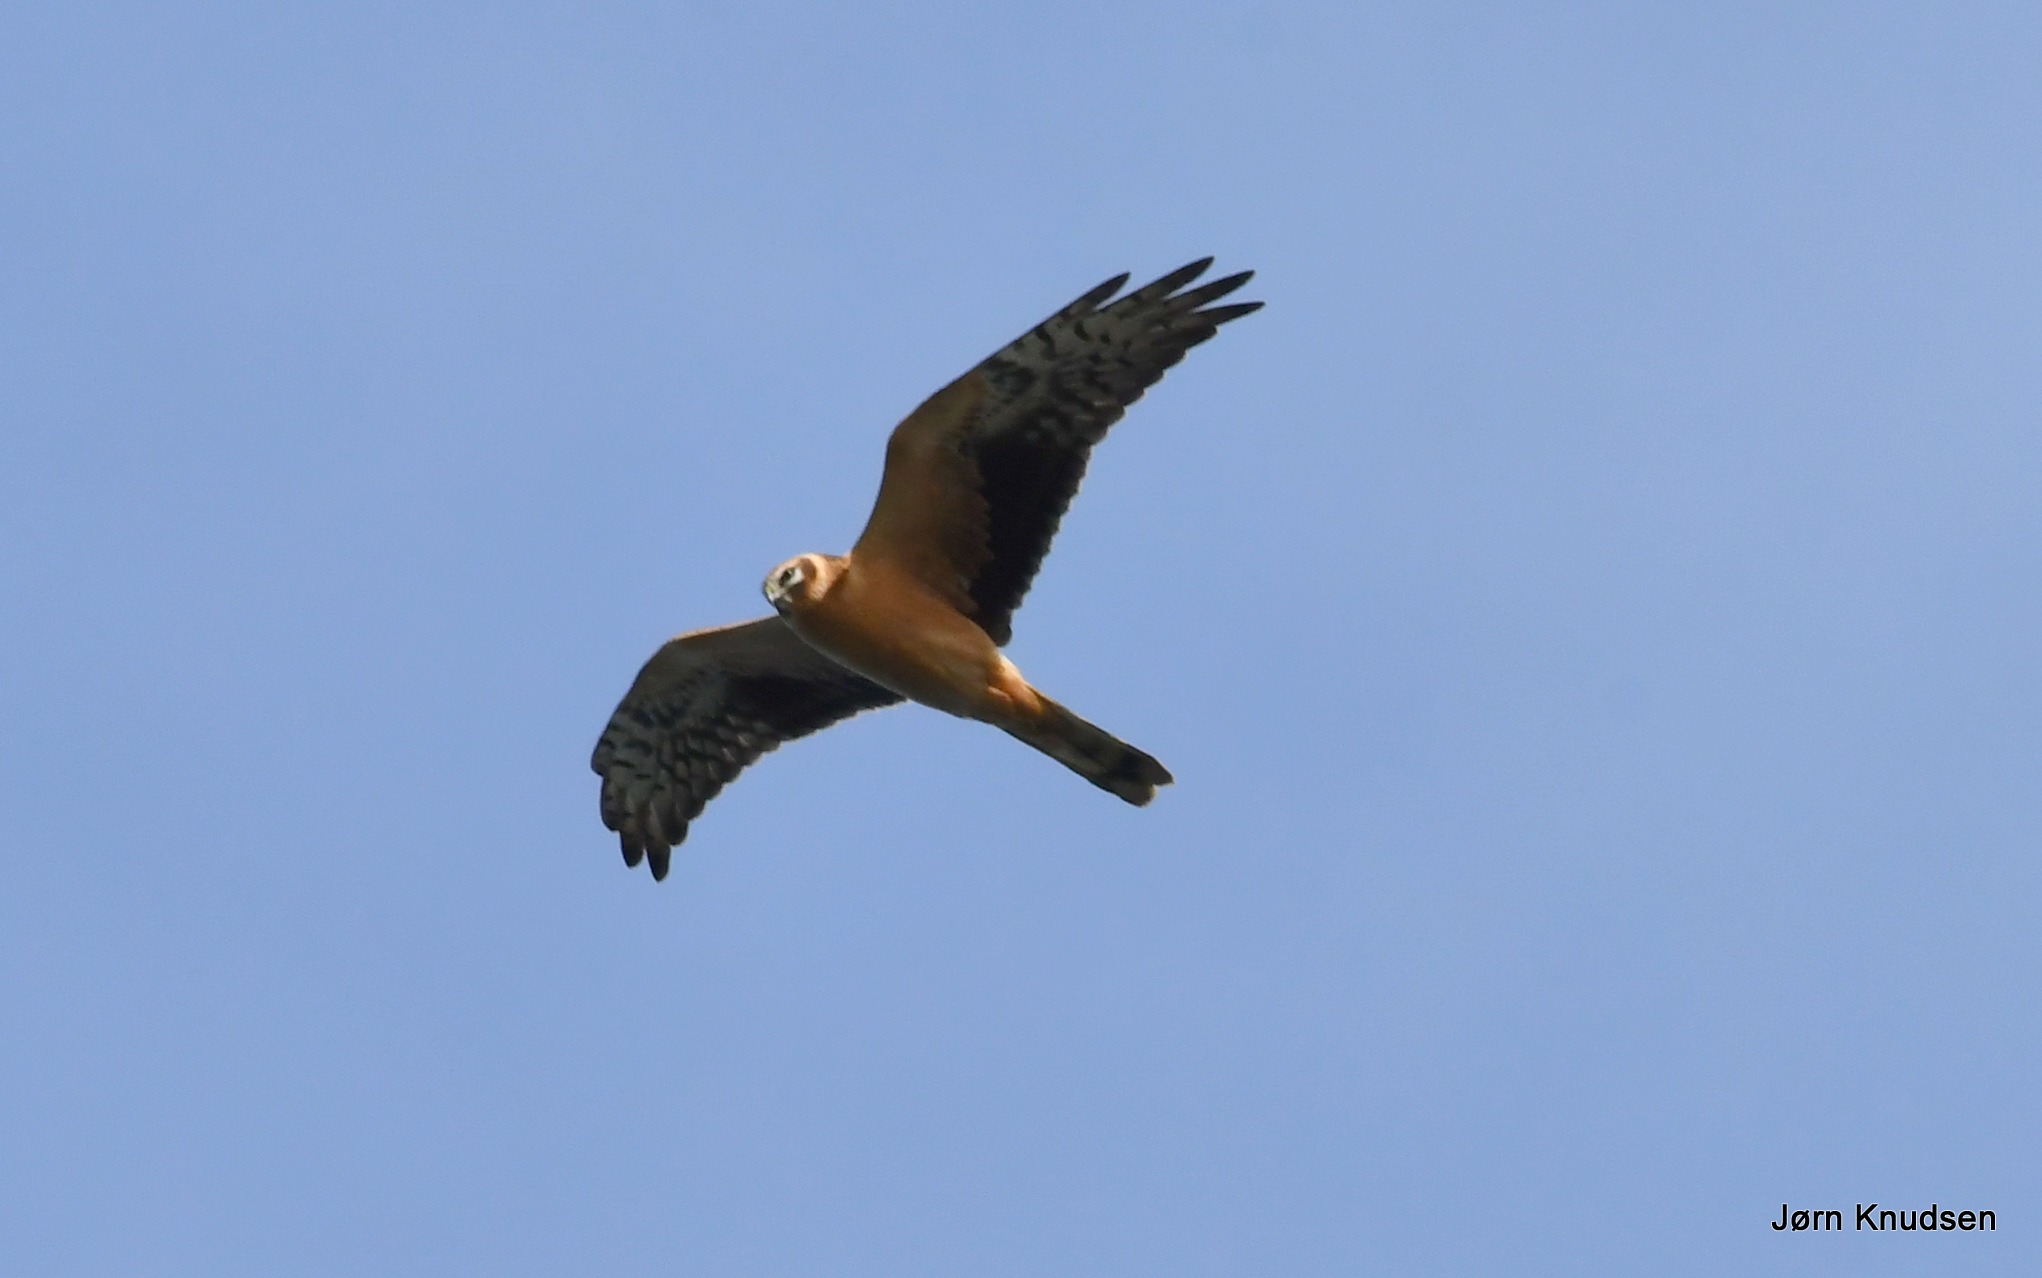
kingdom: Animalia
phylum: Chordata
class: Aves
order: Accipitriformes
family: Accipitridae
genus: Circus
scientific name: Circus macrourus
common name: Steppehøg
